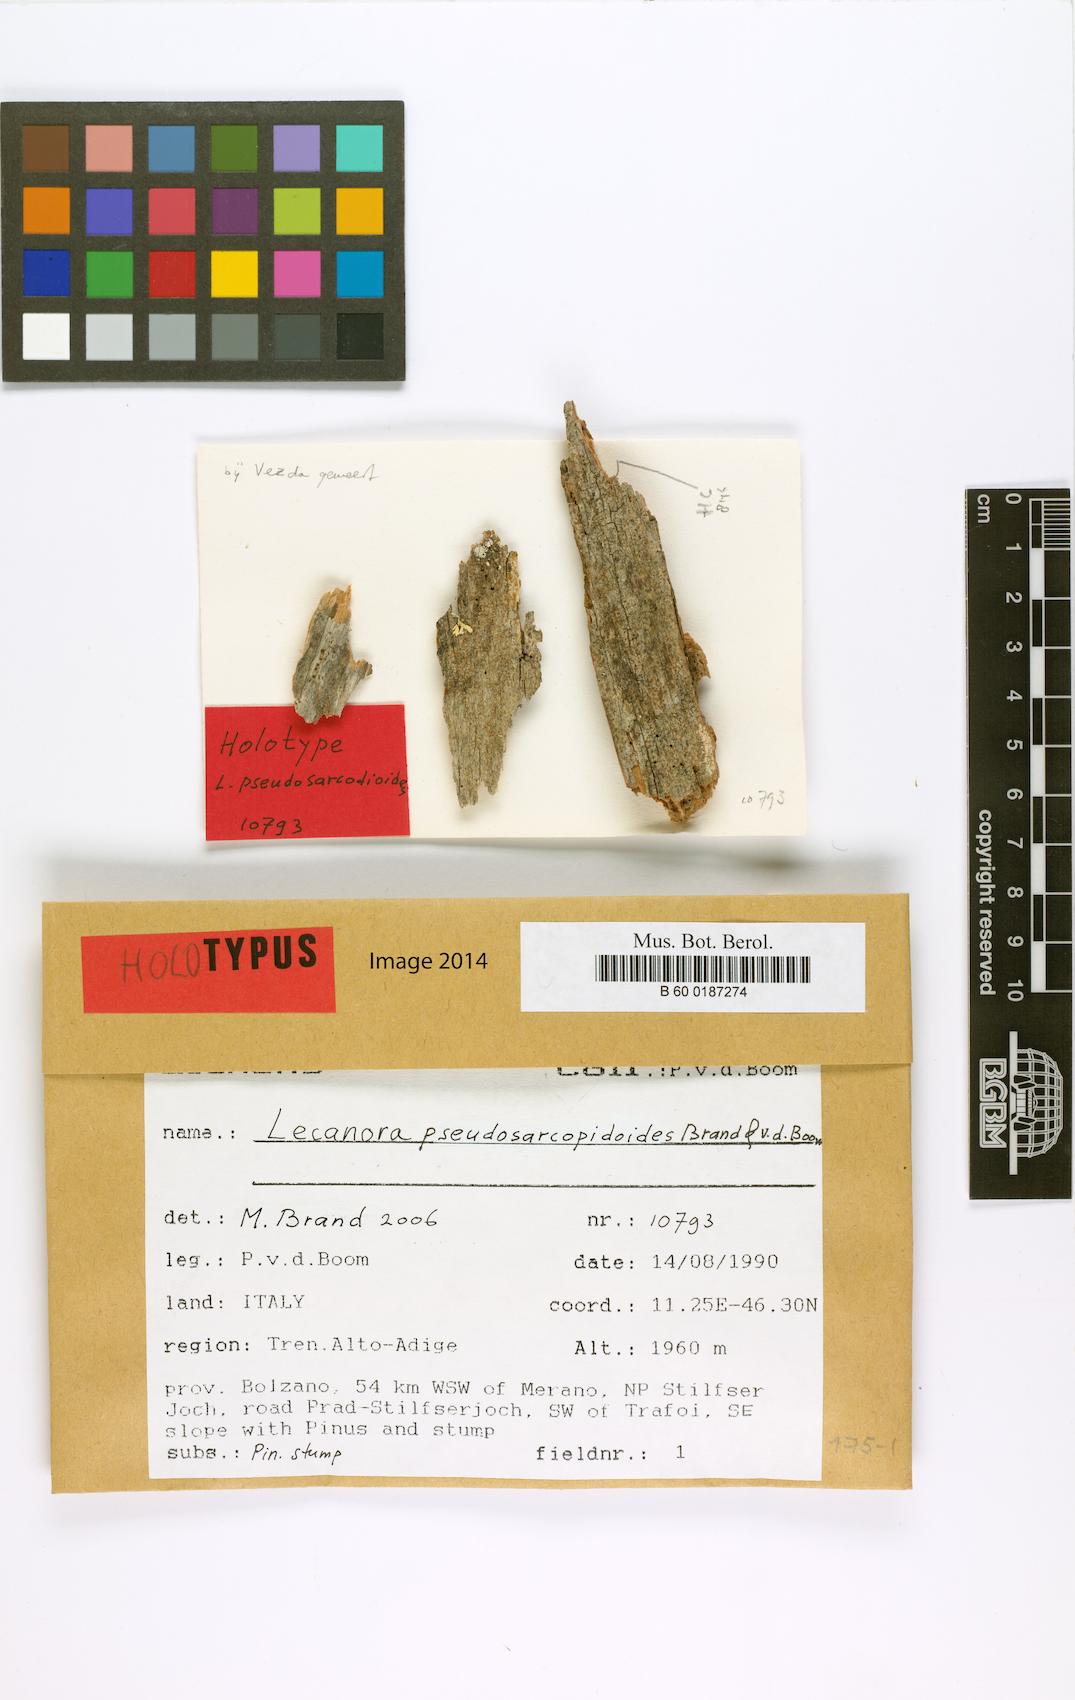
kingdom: Fungi
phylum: Ascomycota
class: Lecanoromycetes
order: Lecanorales
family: Lecanoraceae
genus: Lecanora
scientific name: Lecanora pseudosarcopidoides
